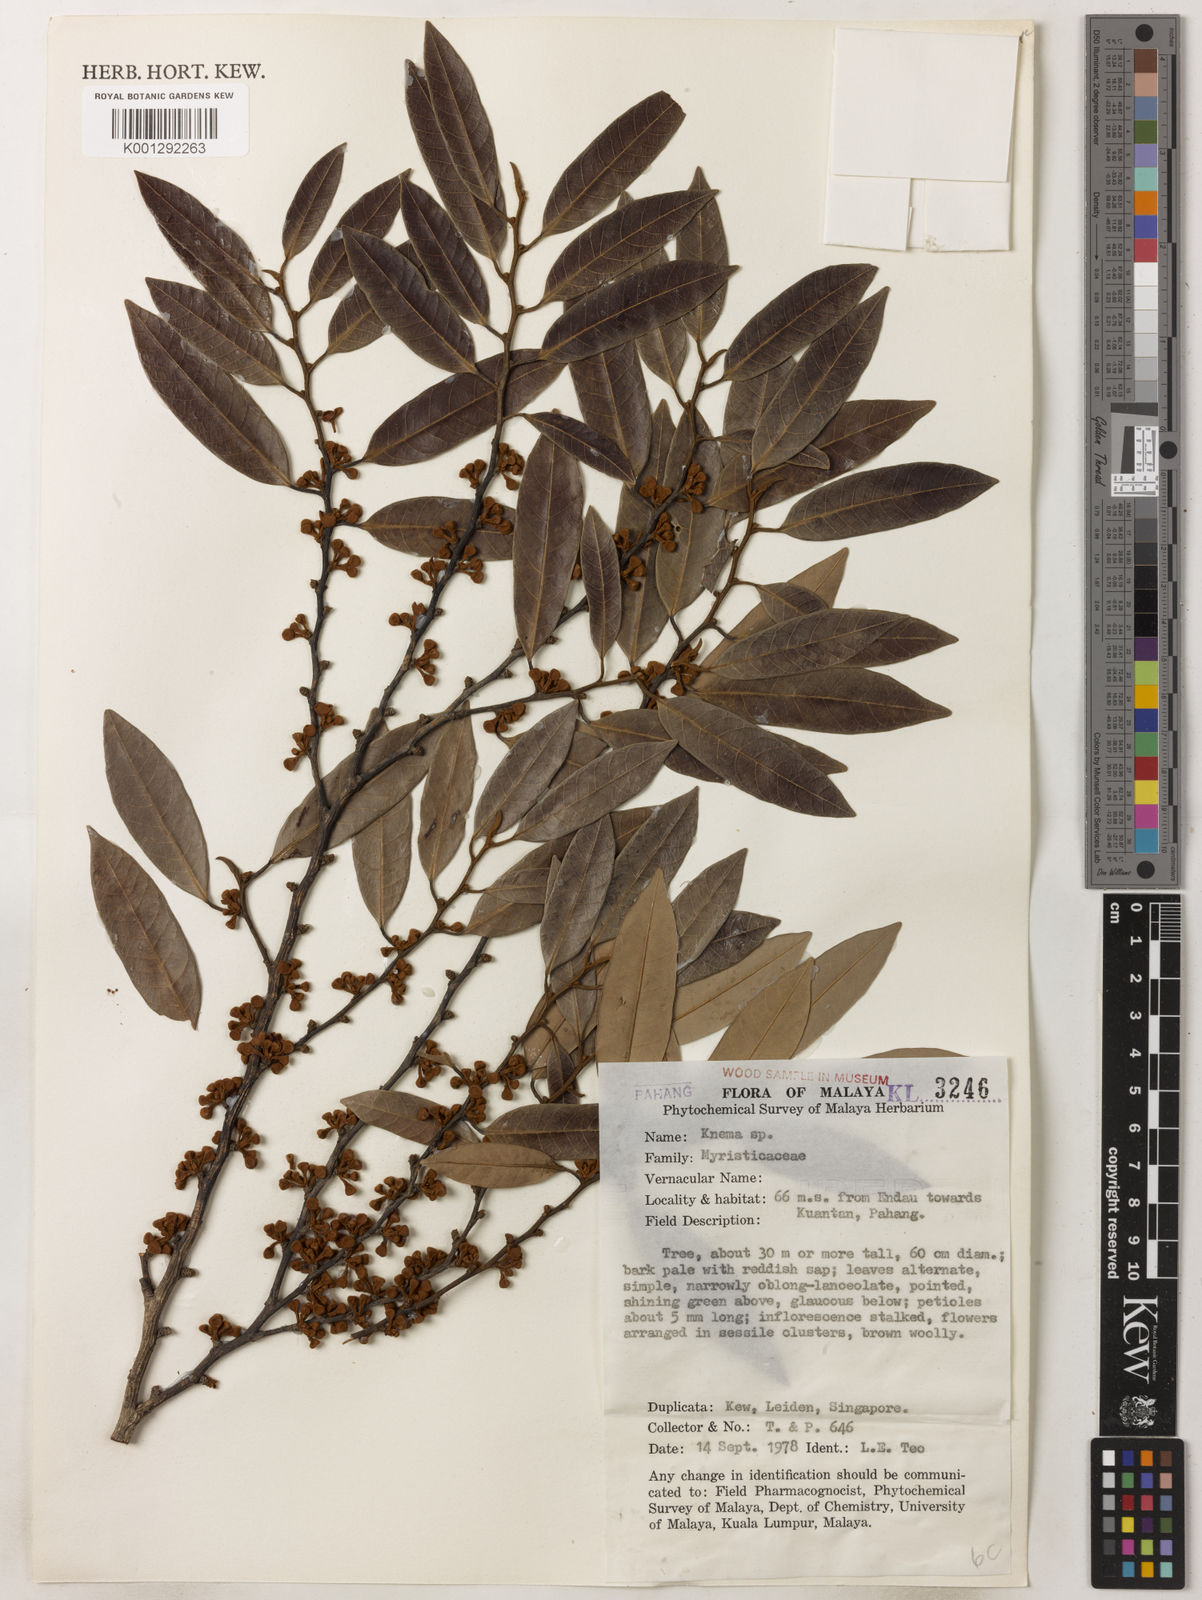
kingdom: Plantae
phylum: Tracheophyta
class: Magnoliopsida
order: Magnoliales
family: Myristicaceae
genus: Knema
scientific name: Knema
